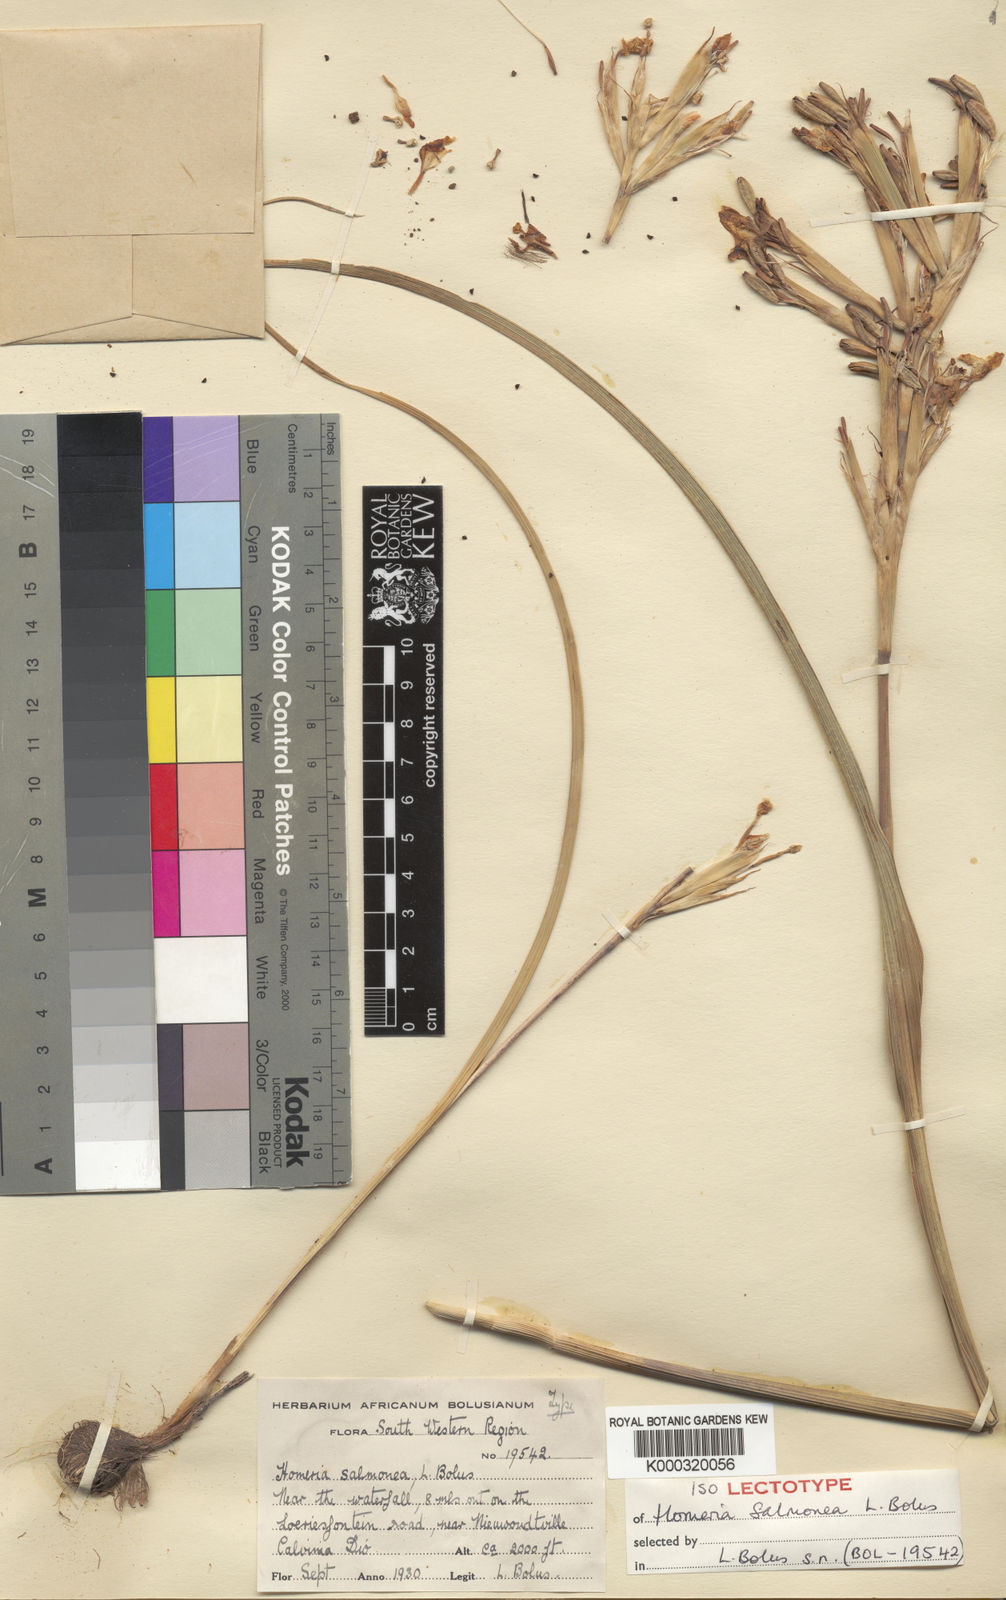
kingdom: Plantae
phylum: Tracheophyta
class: Liliopsida
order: Asparagales
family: Iridaceae
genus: Moraea
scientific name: Moraea bifida
